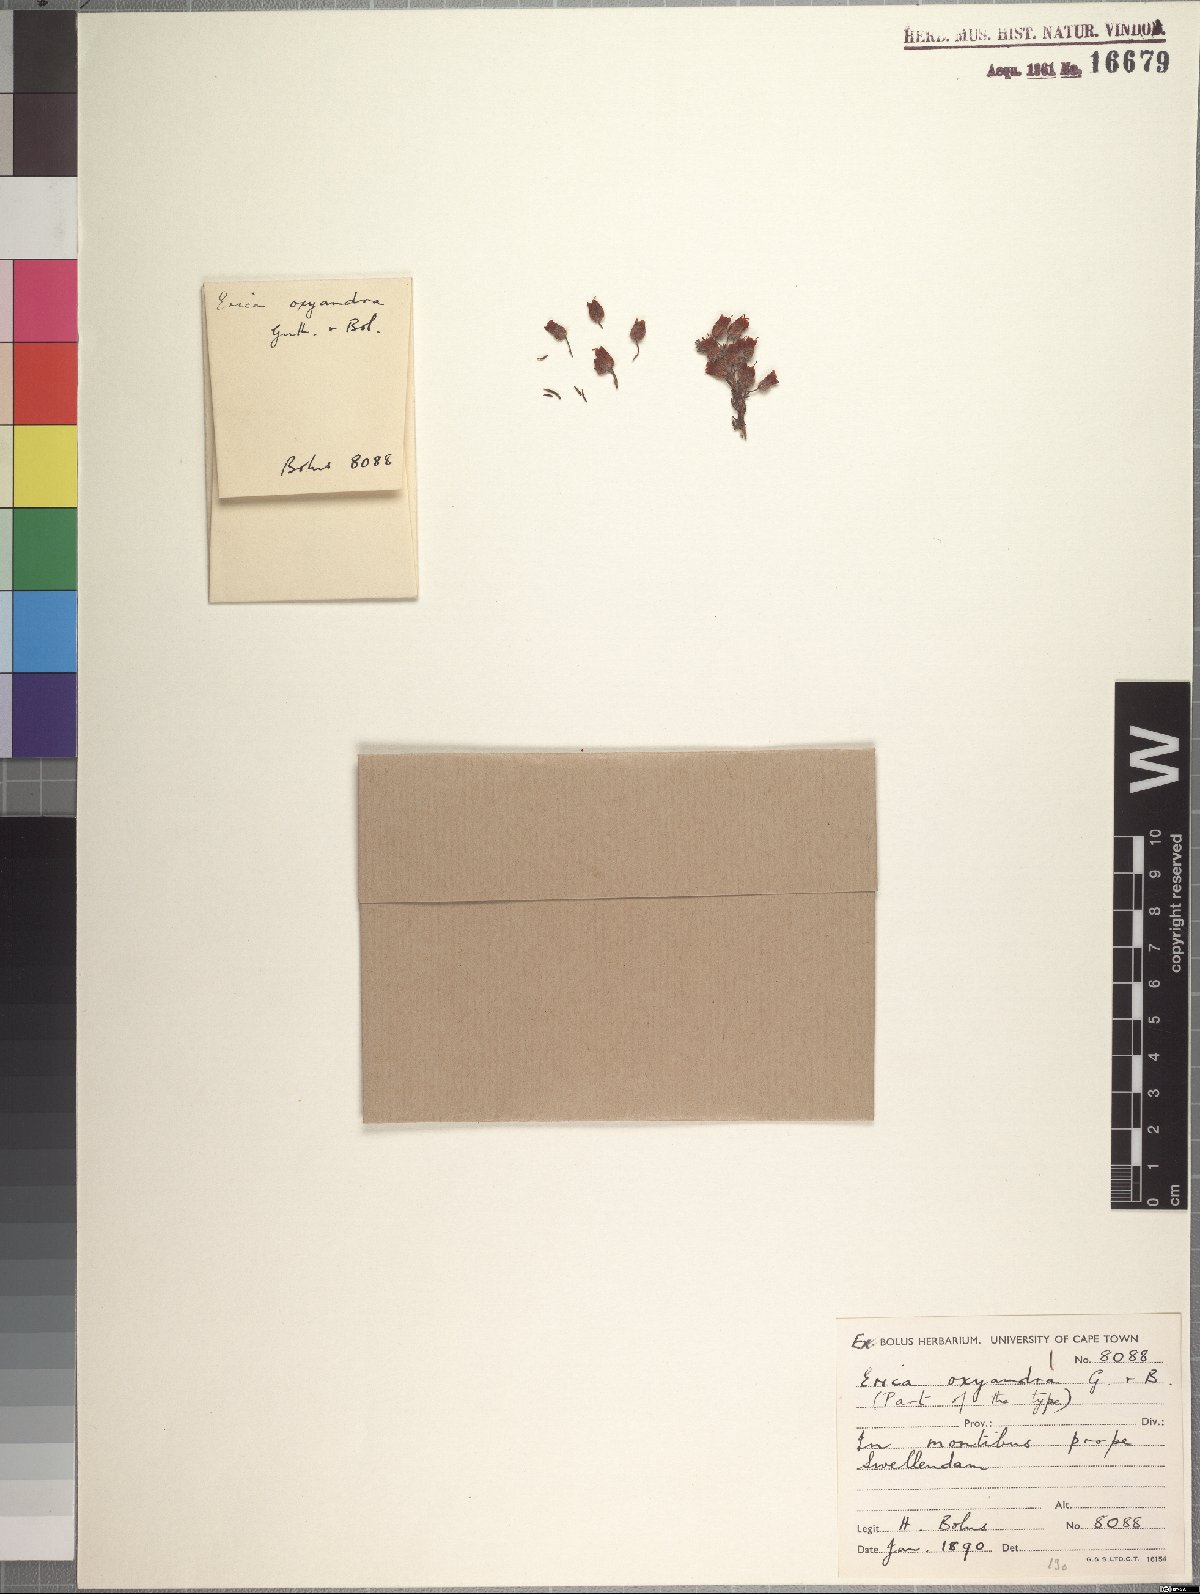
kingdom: Plantae
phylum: Tracheophyta
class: Magnoliopsida
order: Ericales
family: Ericaceae
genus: Erica
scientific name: Erica oxyandra
